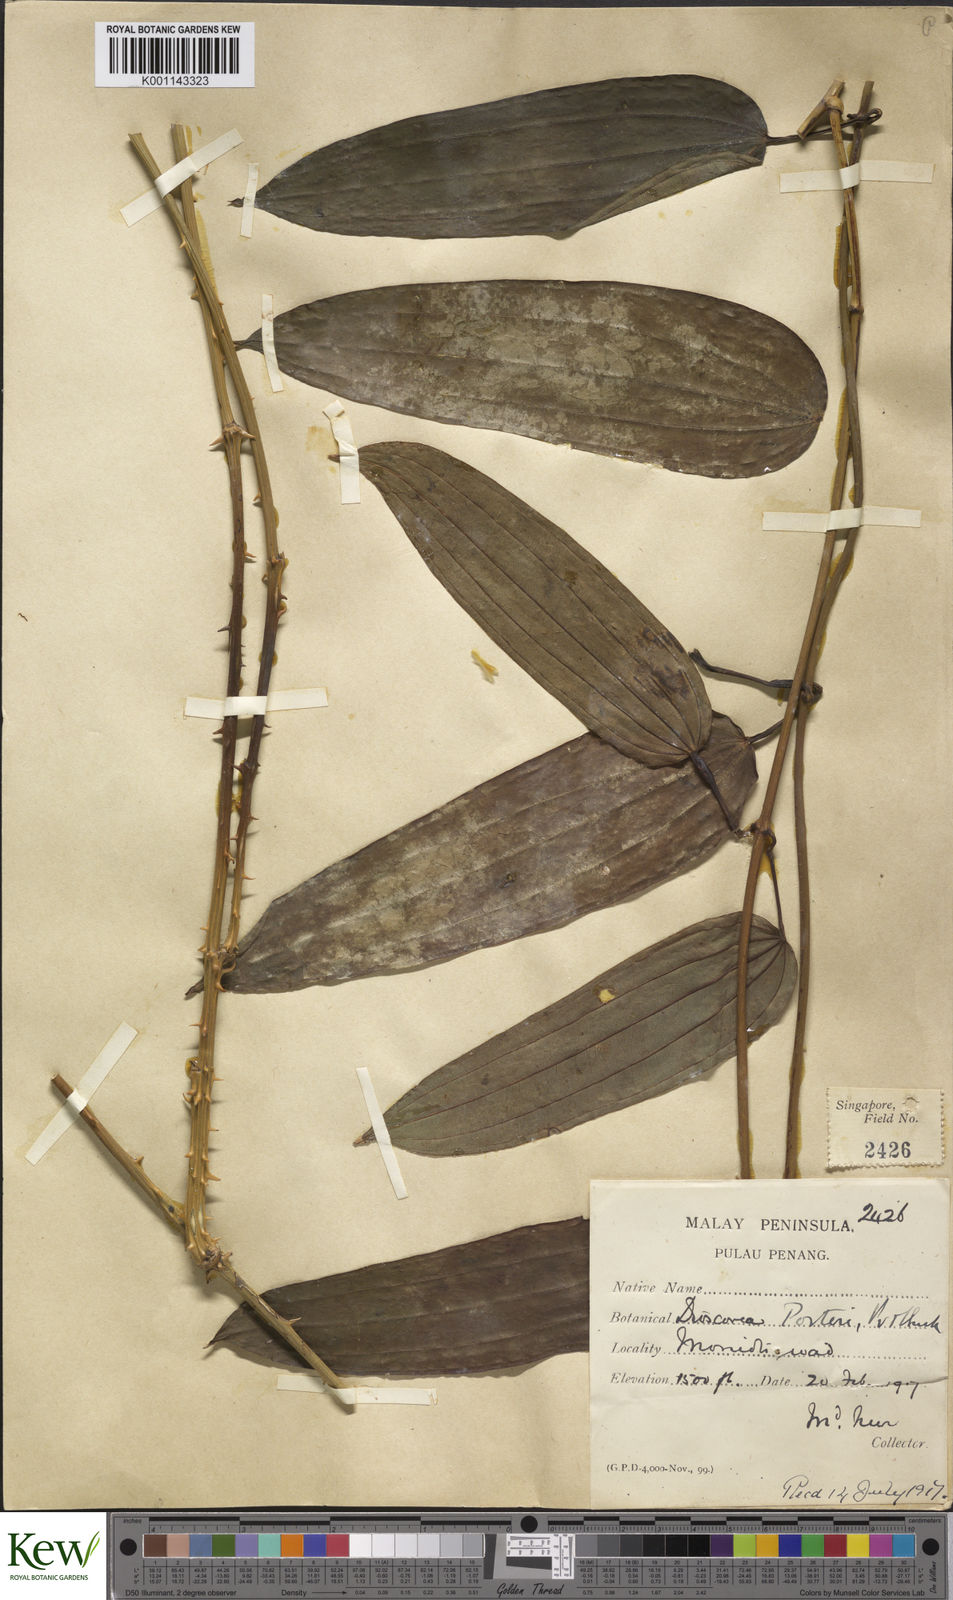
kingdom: Plantae
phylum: Tracheophyta
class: Liliopsida
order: Dioscoreales
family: Dioscoreaceae
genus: Dioscorea
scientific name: Dioscorea kingii
